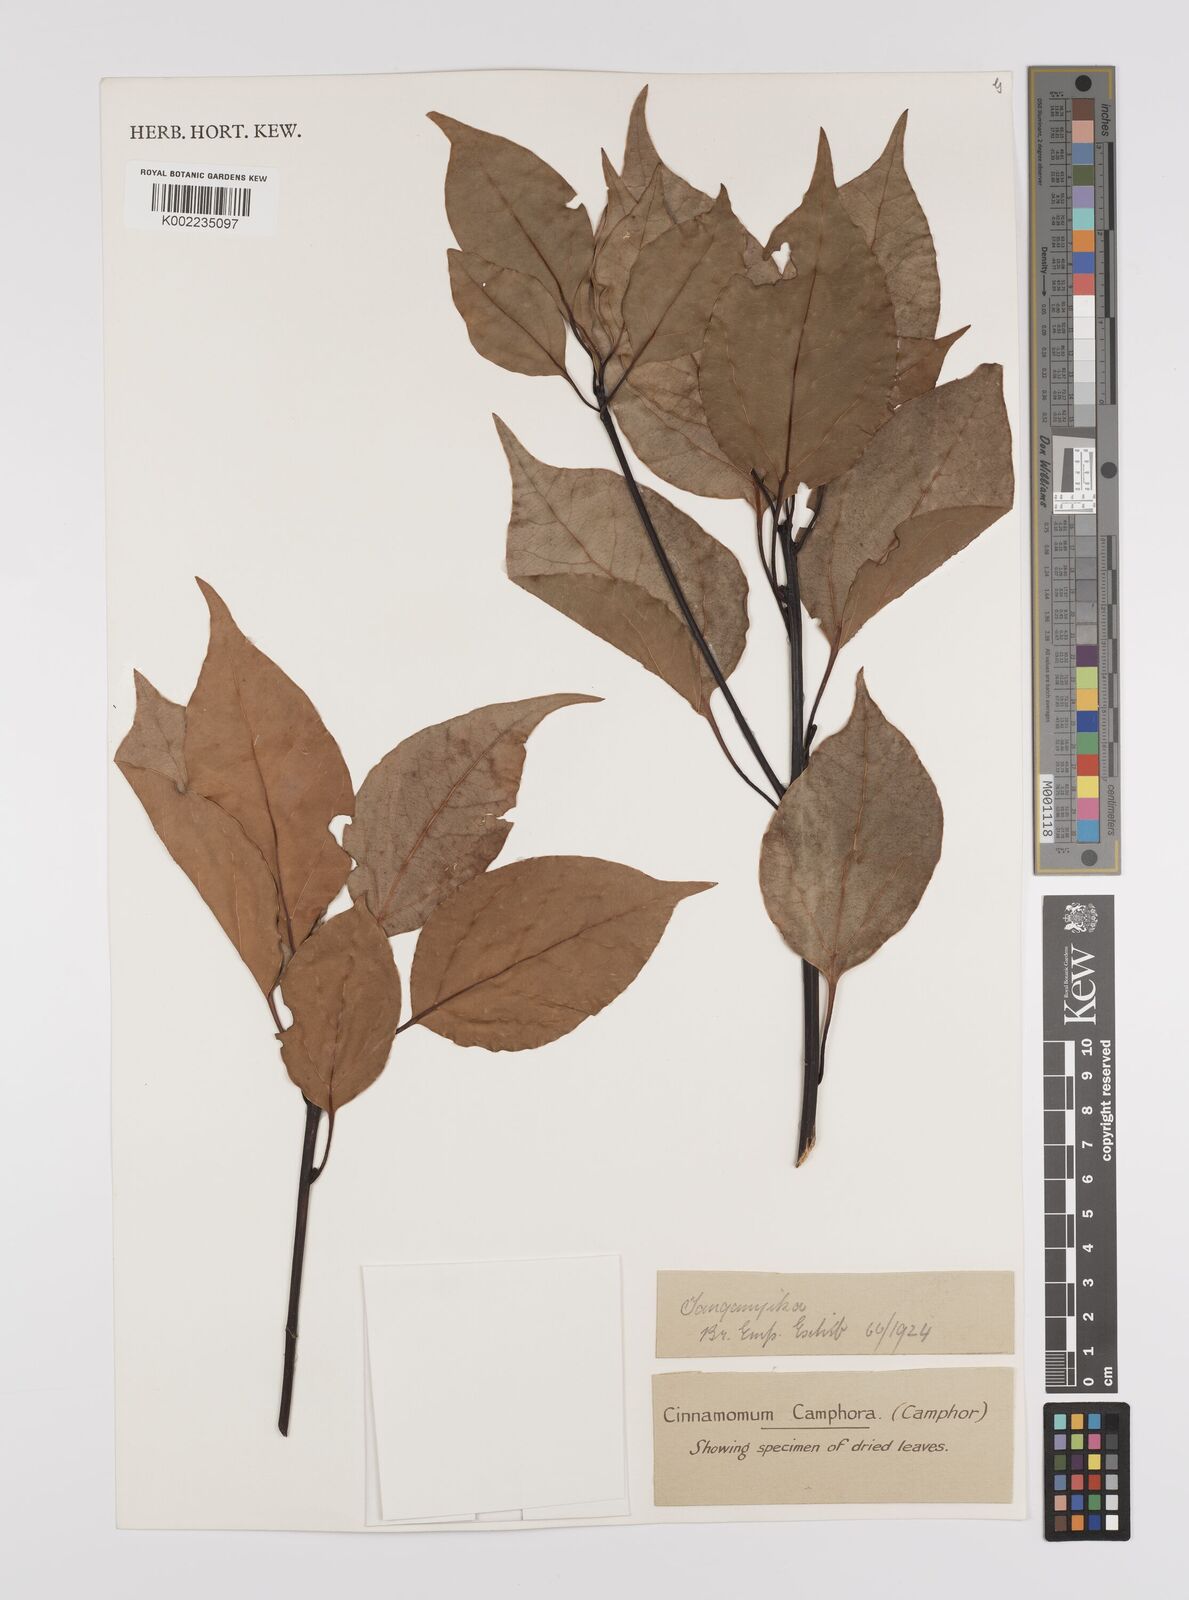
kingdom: Plantae
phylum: Tracheophyta
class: Magnoliopsida
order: Laurales
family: Lauraceae
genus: Cinnamomum
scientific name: Cinnamomum camphora
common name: Camphortree
